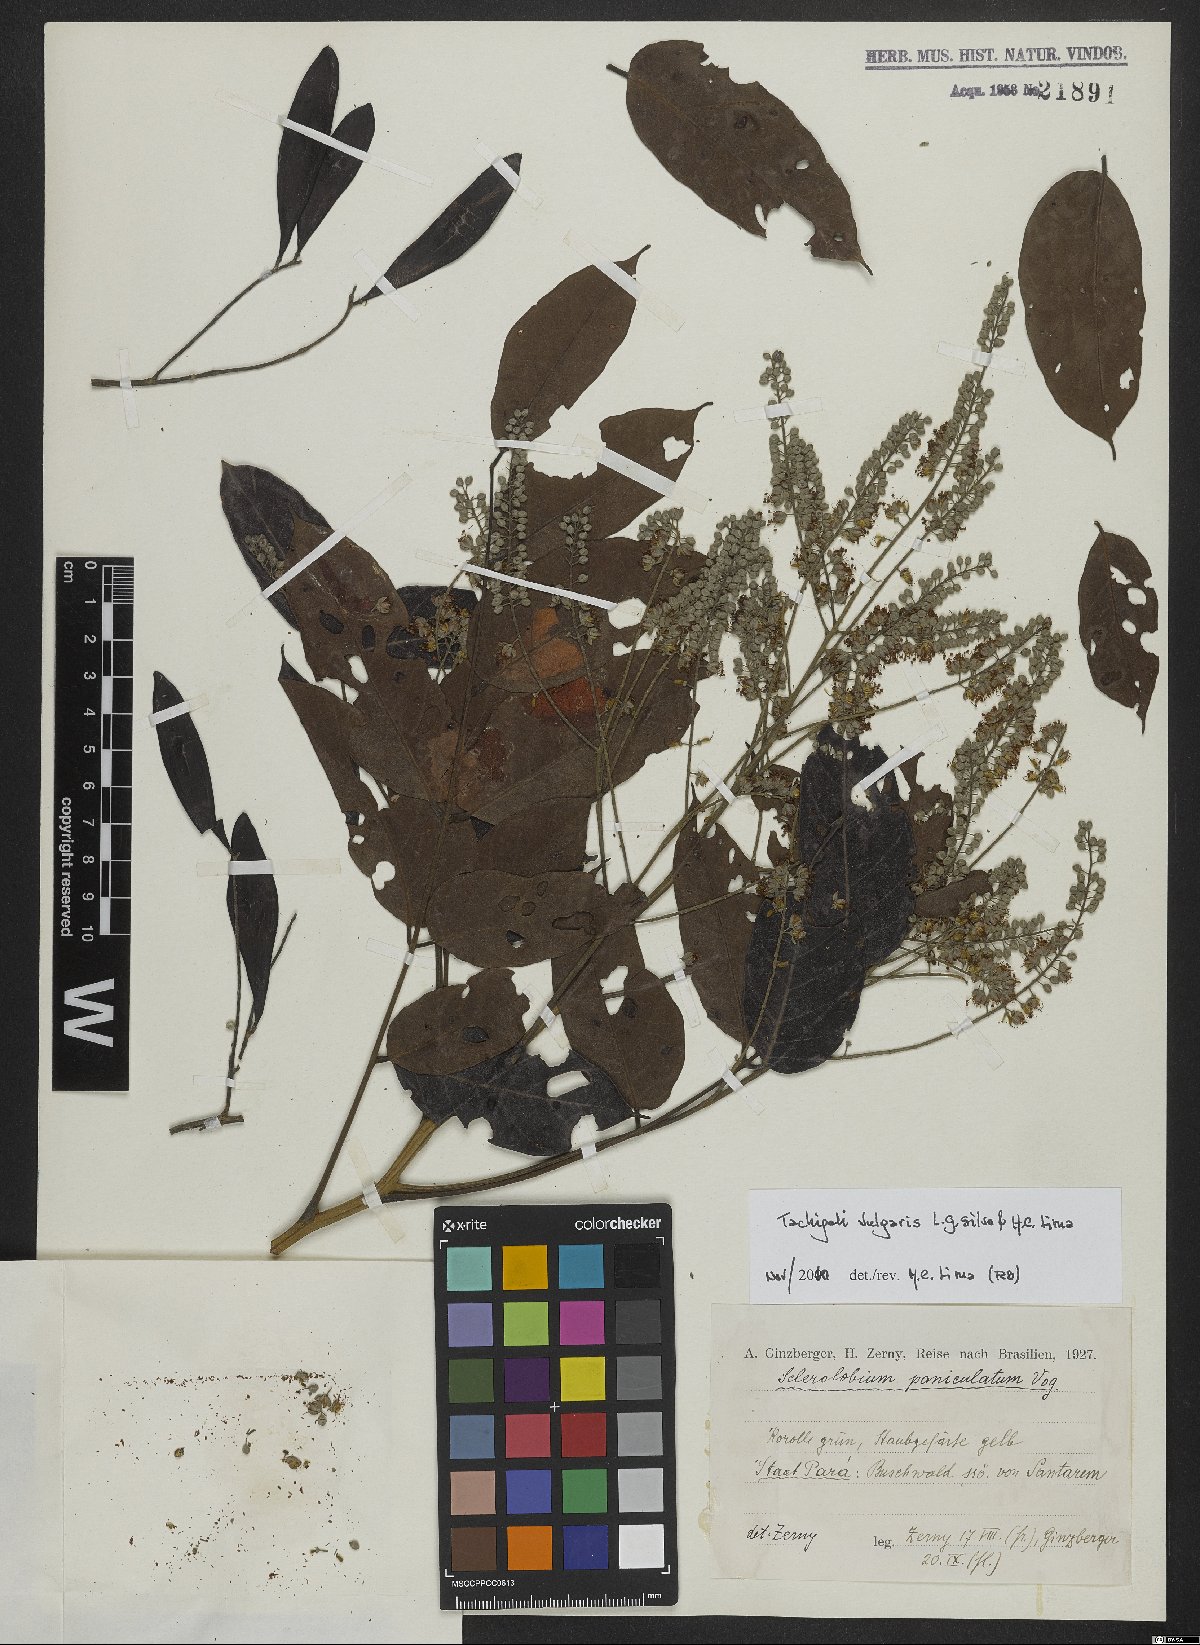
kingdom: Plantae
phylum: Tracheophyta
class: Magnoliopsida
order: Fabales
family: Fabaceae
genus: Tachigali
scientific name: Tachigali vulgaris
